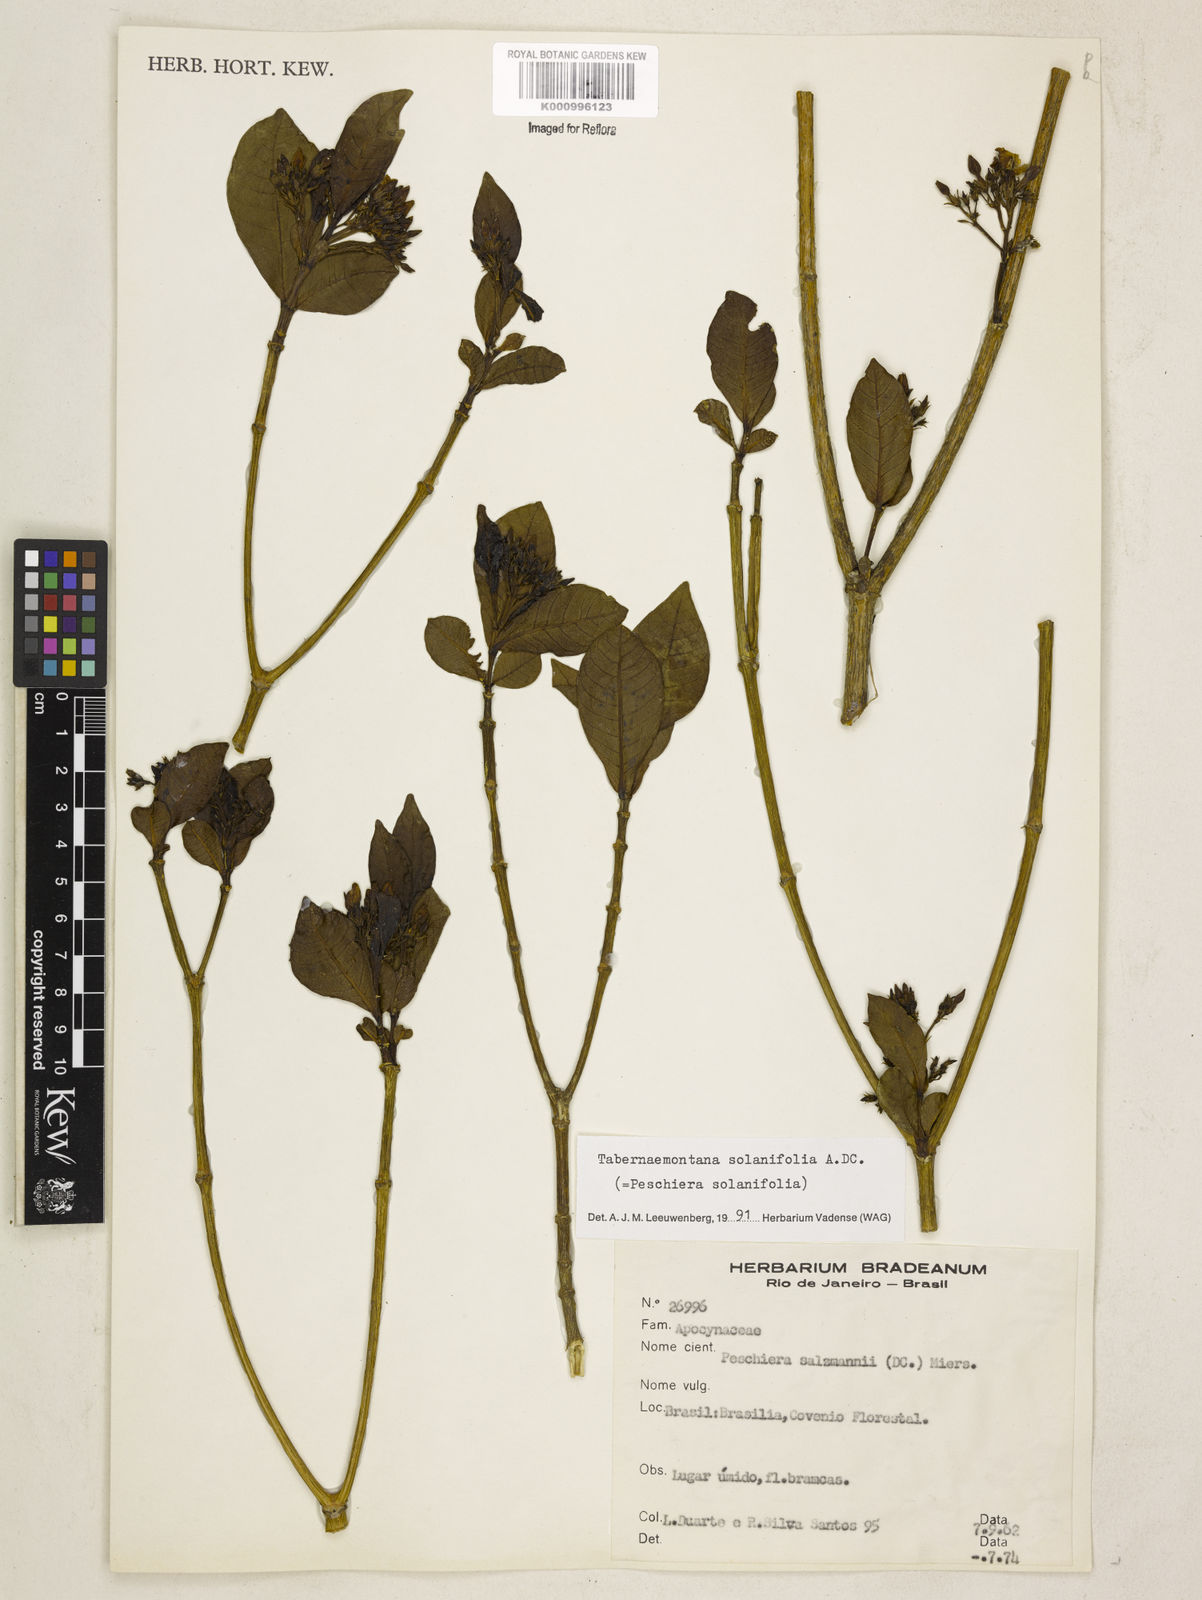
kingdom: Plantae
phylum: Tracheophyta
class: Magnoliopsida
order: Gentianales
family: Apocynaceae
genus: Tabernaemontana
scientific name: Tabernaemontana solanifolia
